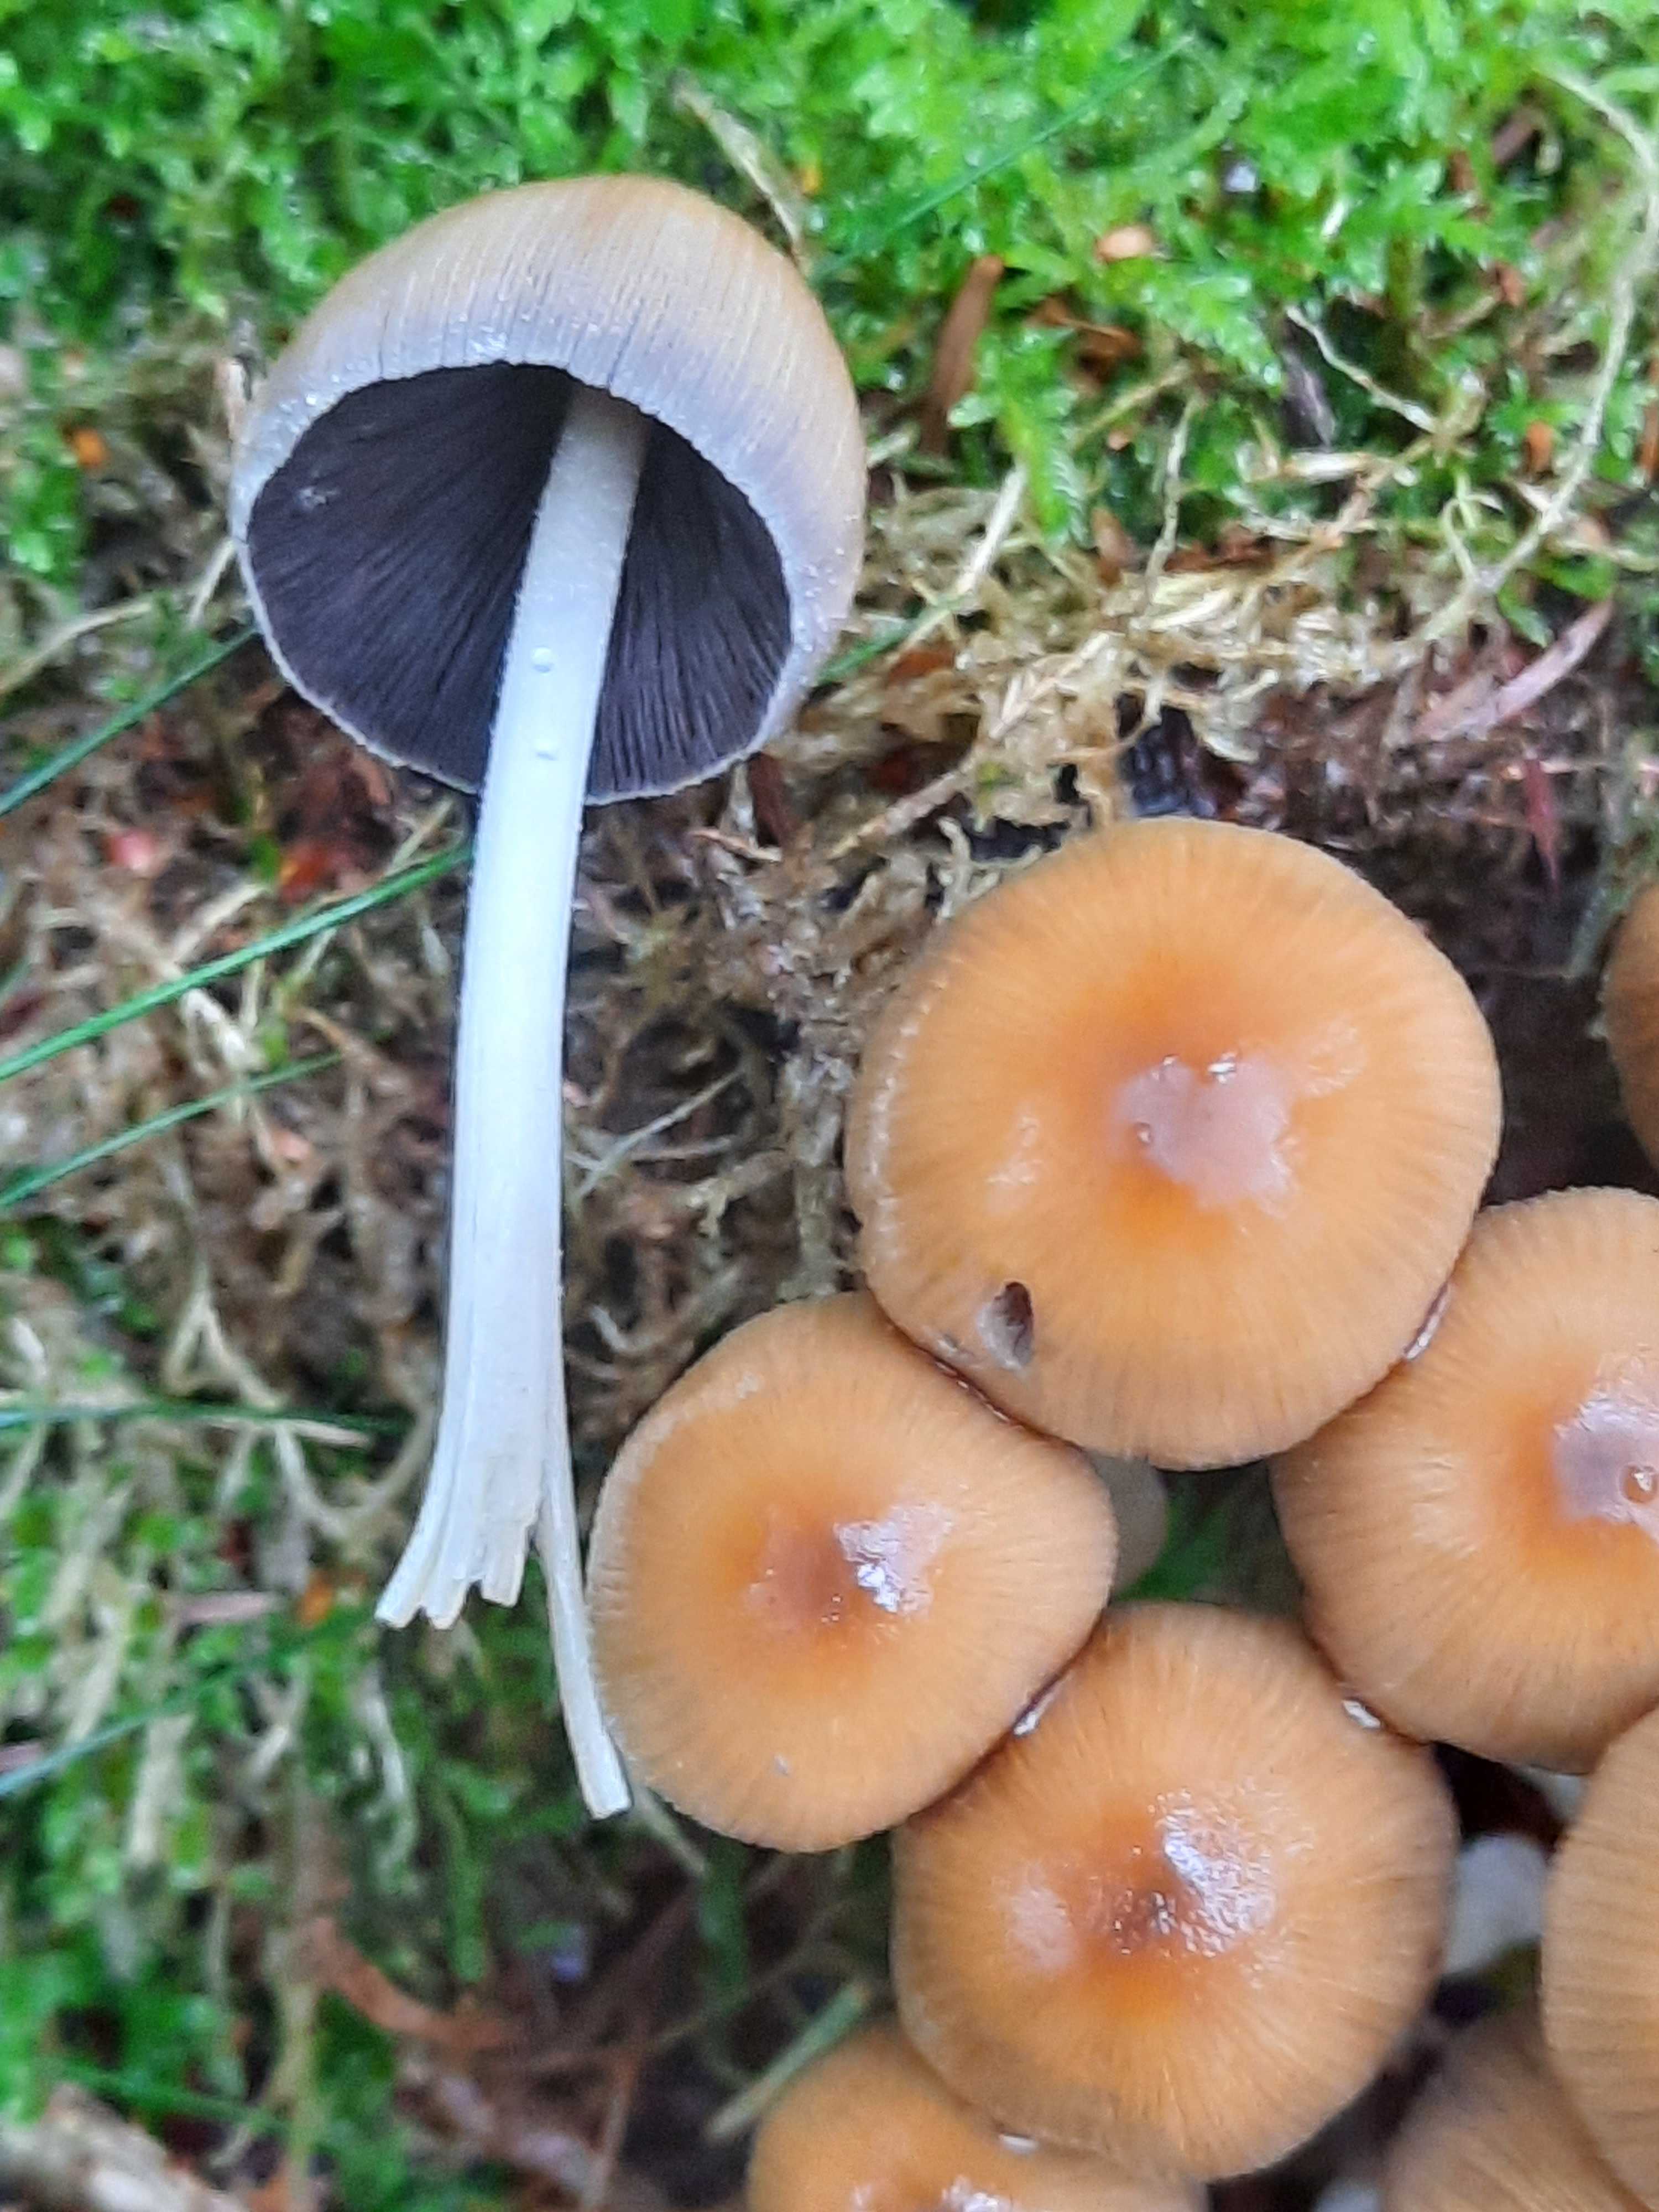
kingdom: Fungi
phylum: Basidiomycota
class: Agaricomycetes
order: Agaricales
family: Psathyrellaceae
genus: Coprinellus
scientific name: Coprinellus micaceus
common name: glimmer-blækhat
